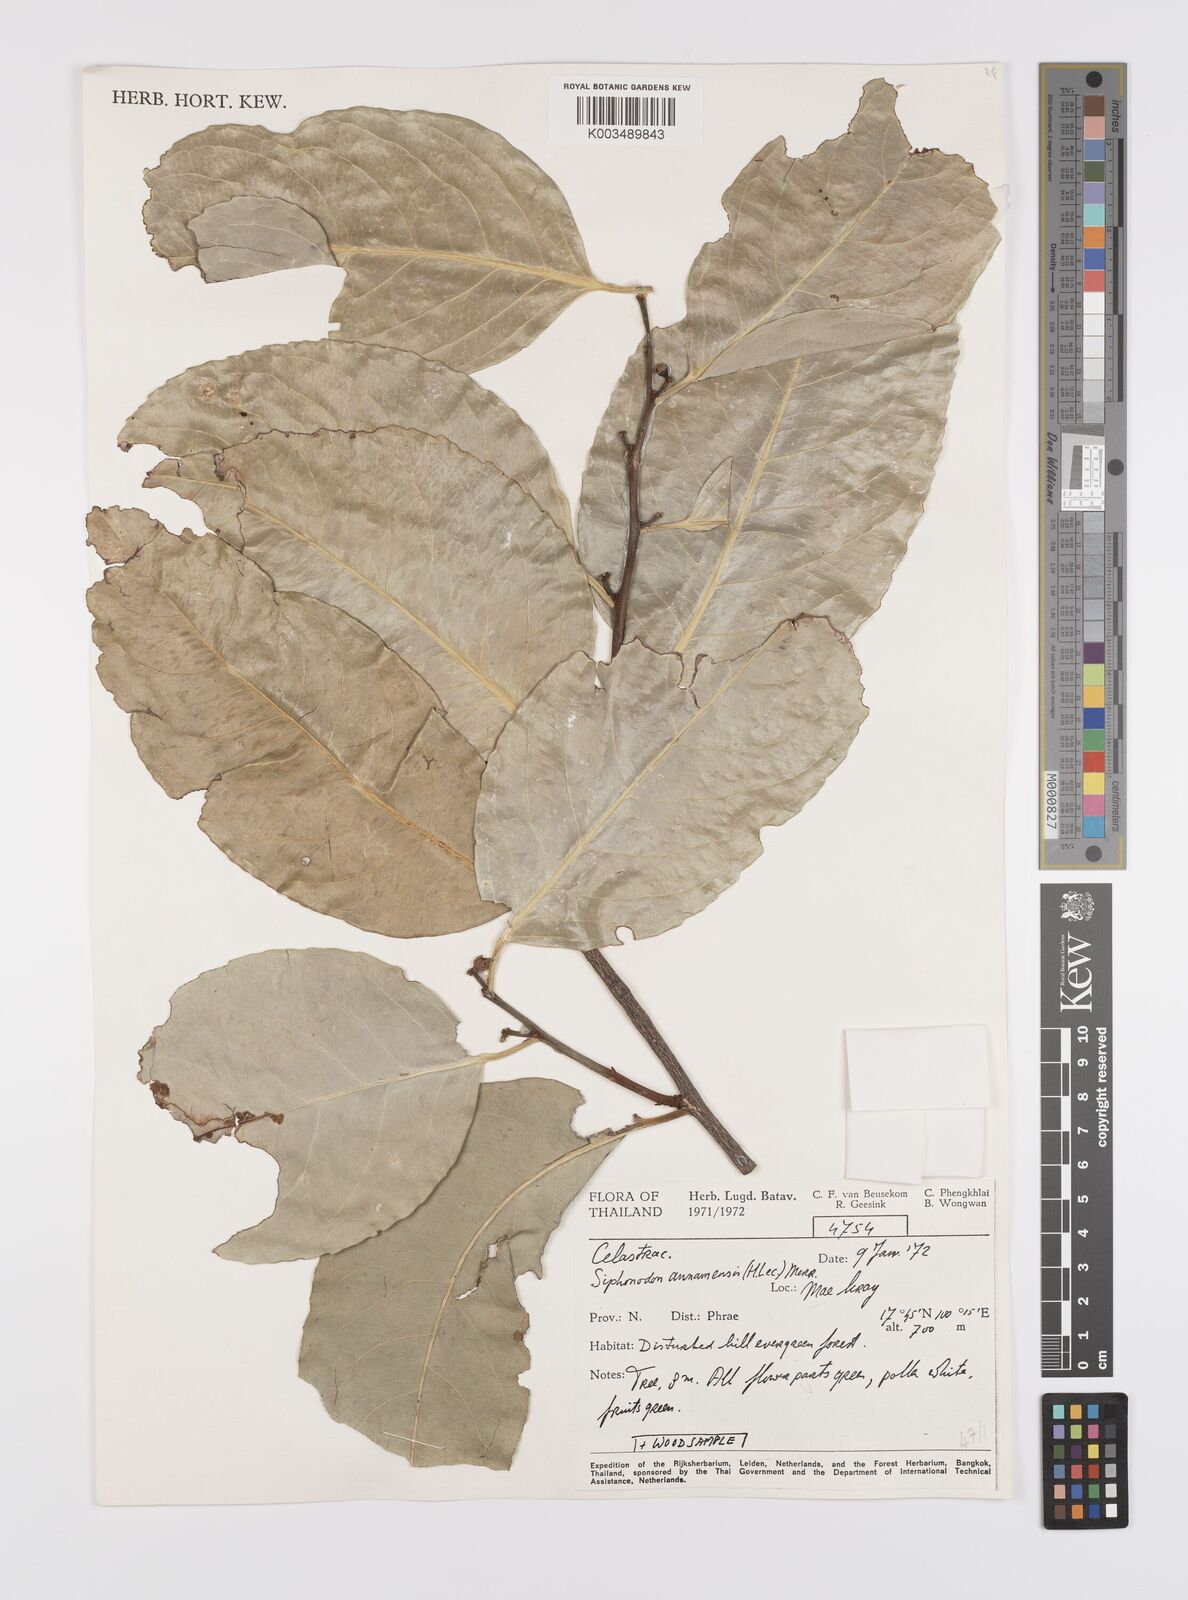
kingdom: Plantae
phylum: Tracheophyta
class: Magnoliopsida
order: Celastrales
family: Celastraceae
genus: Siphonodon
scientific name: Siphonodon celastrineus
